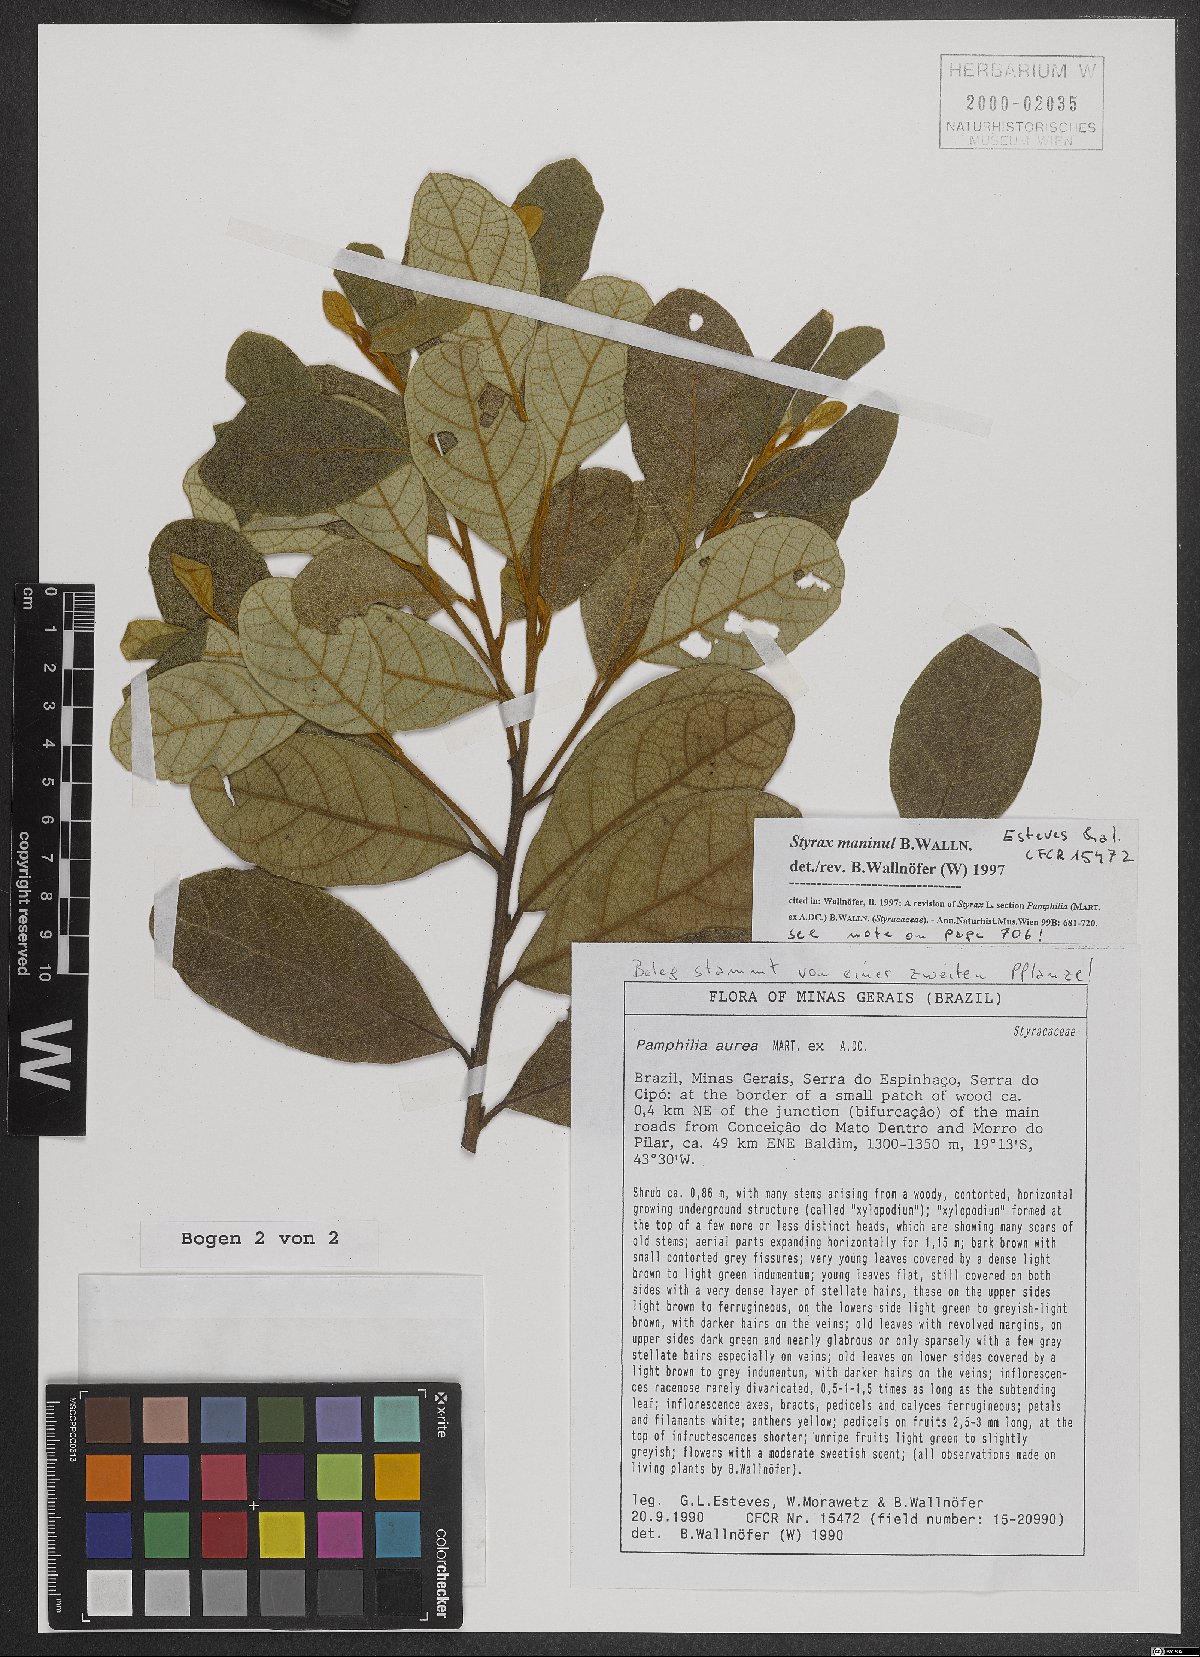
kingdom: Plantae
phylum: Tracheophyta
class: Magnoliopsida
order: Ericales
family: Styracaceae
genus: Styrax
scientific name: Styrax maninul
